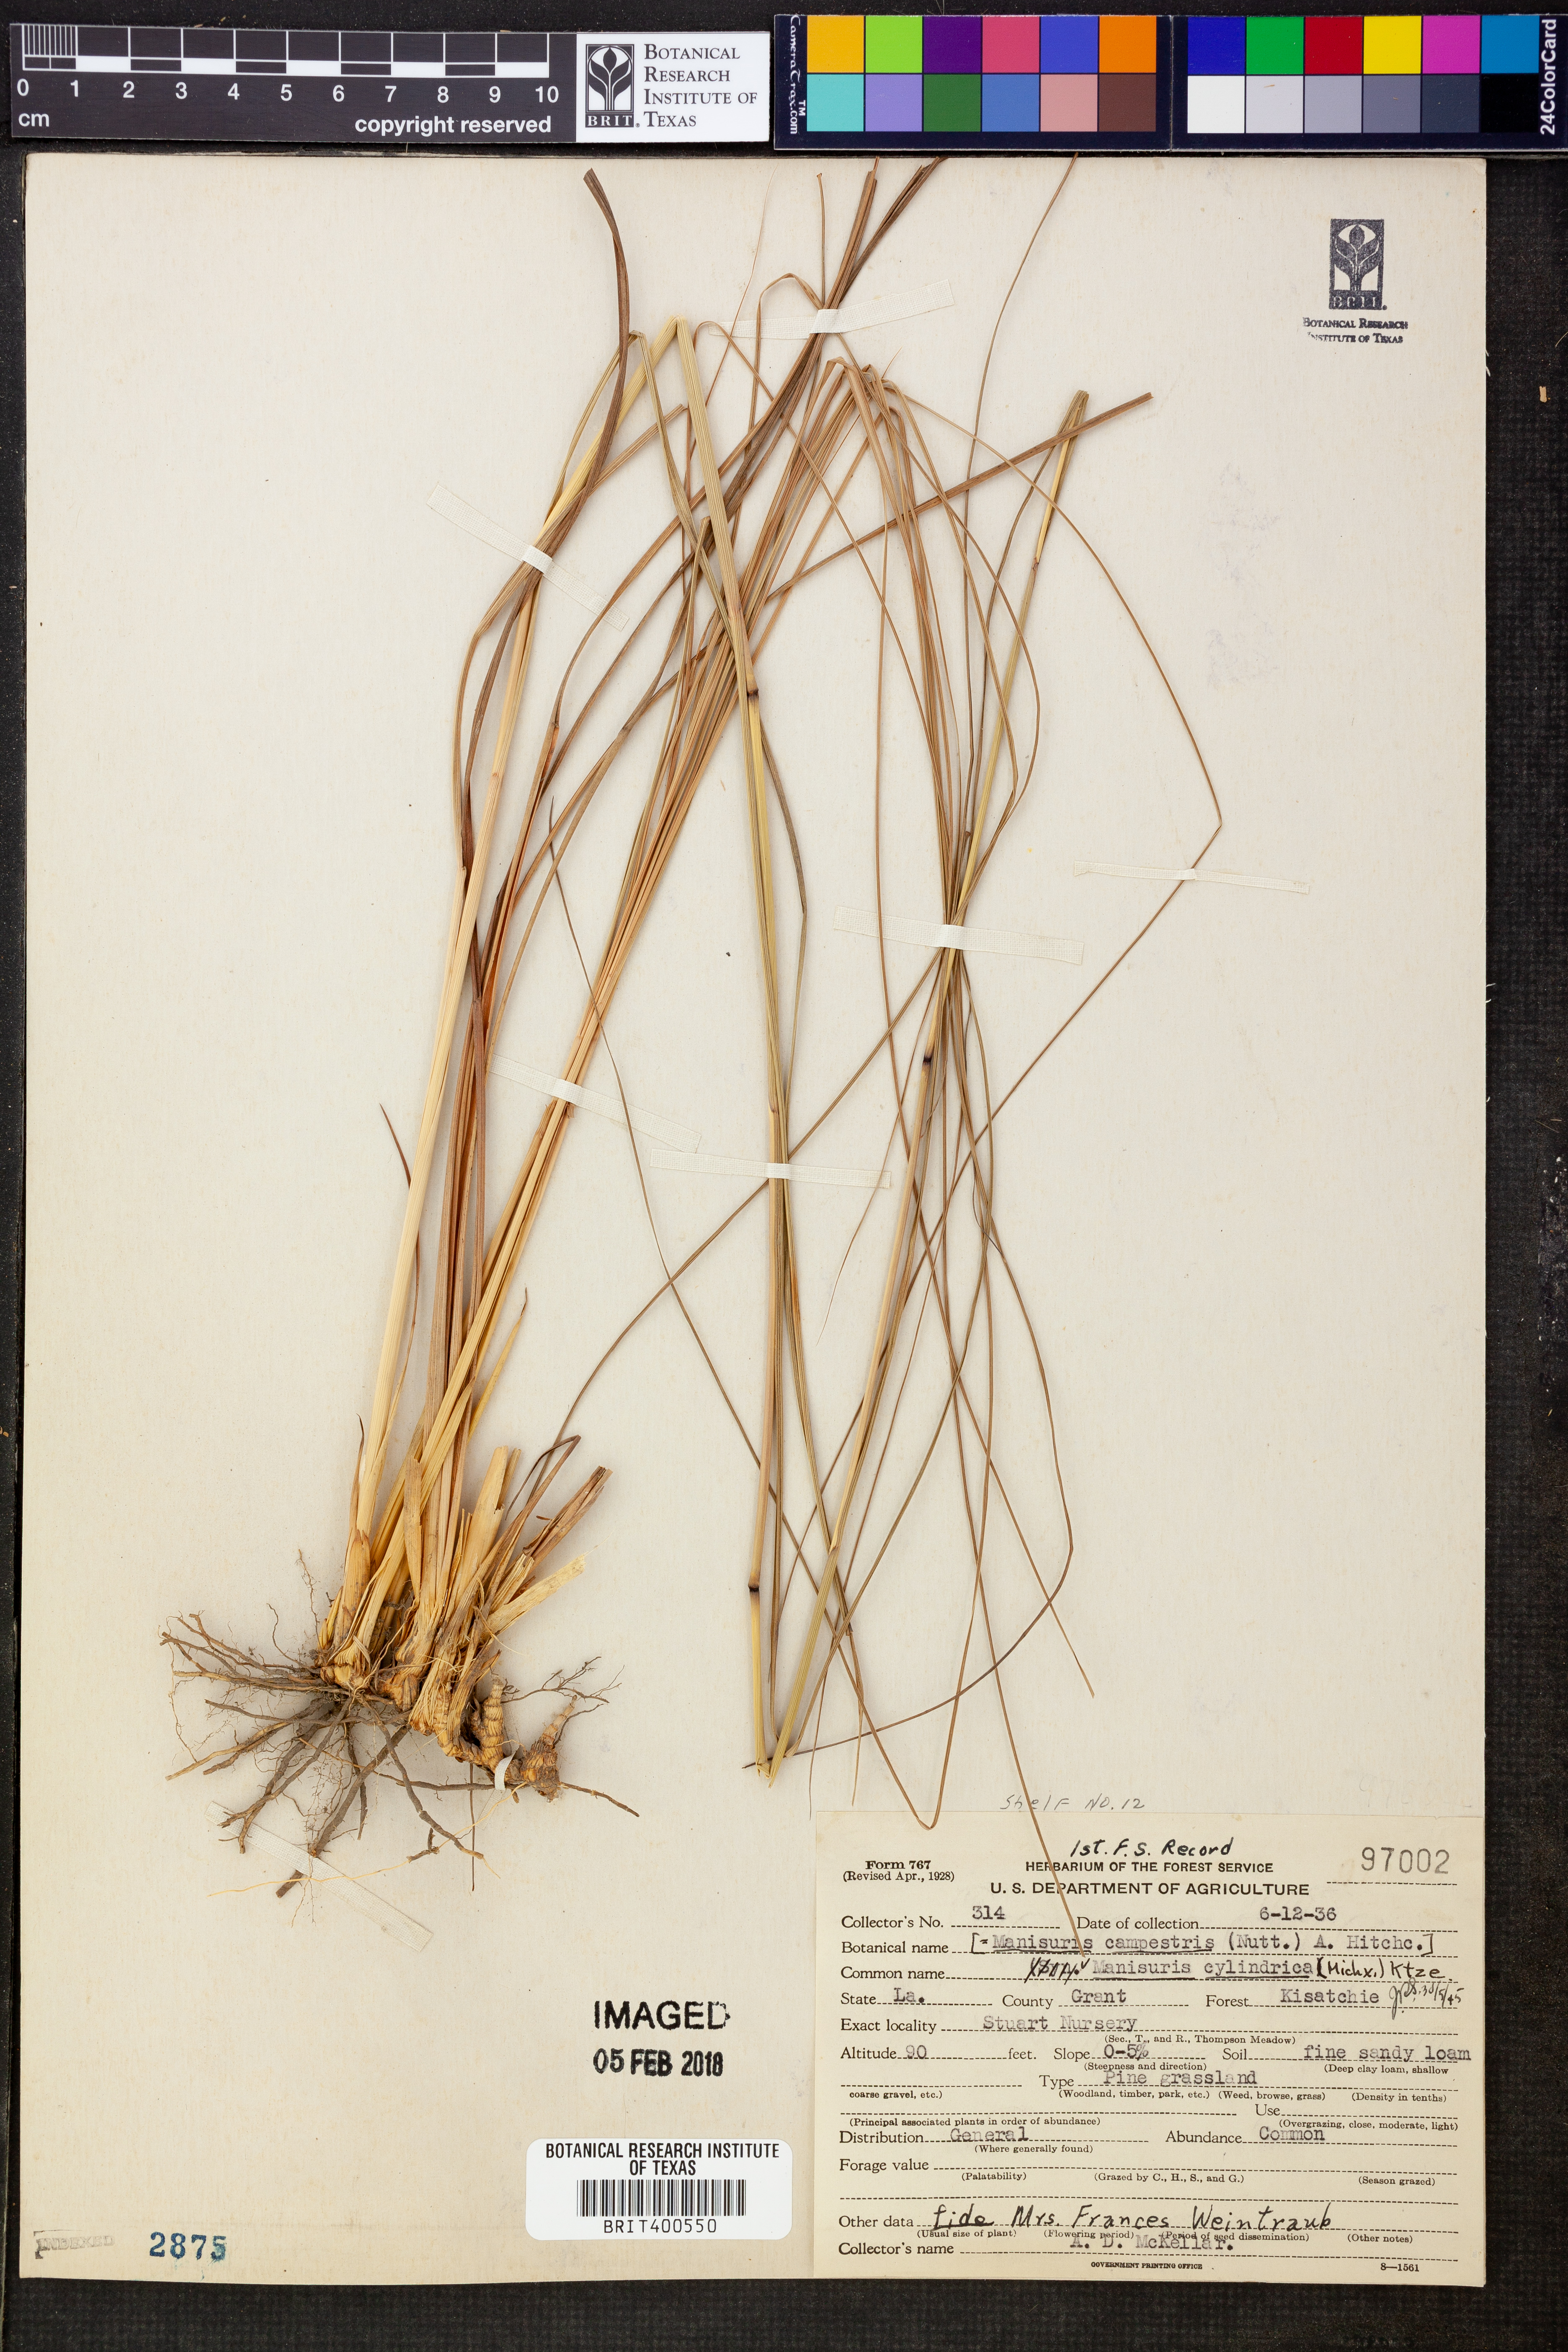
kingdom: Plantae
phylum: Tracheophyta
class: Liliopsida
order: Poales
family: Poaceae
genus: Rottboellia
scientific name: Rottboellia campestris
